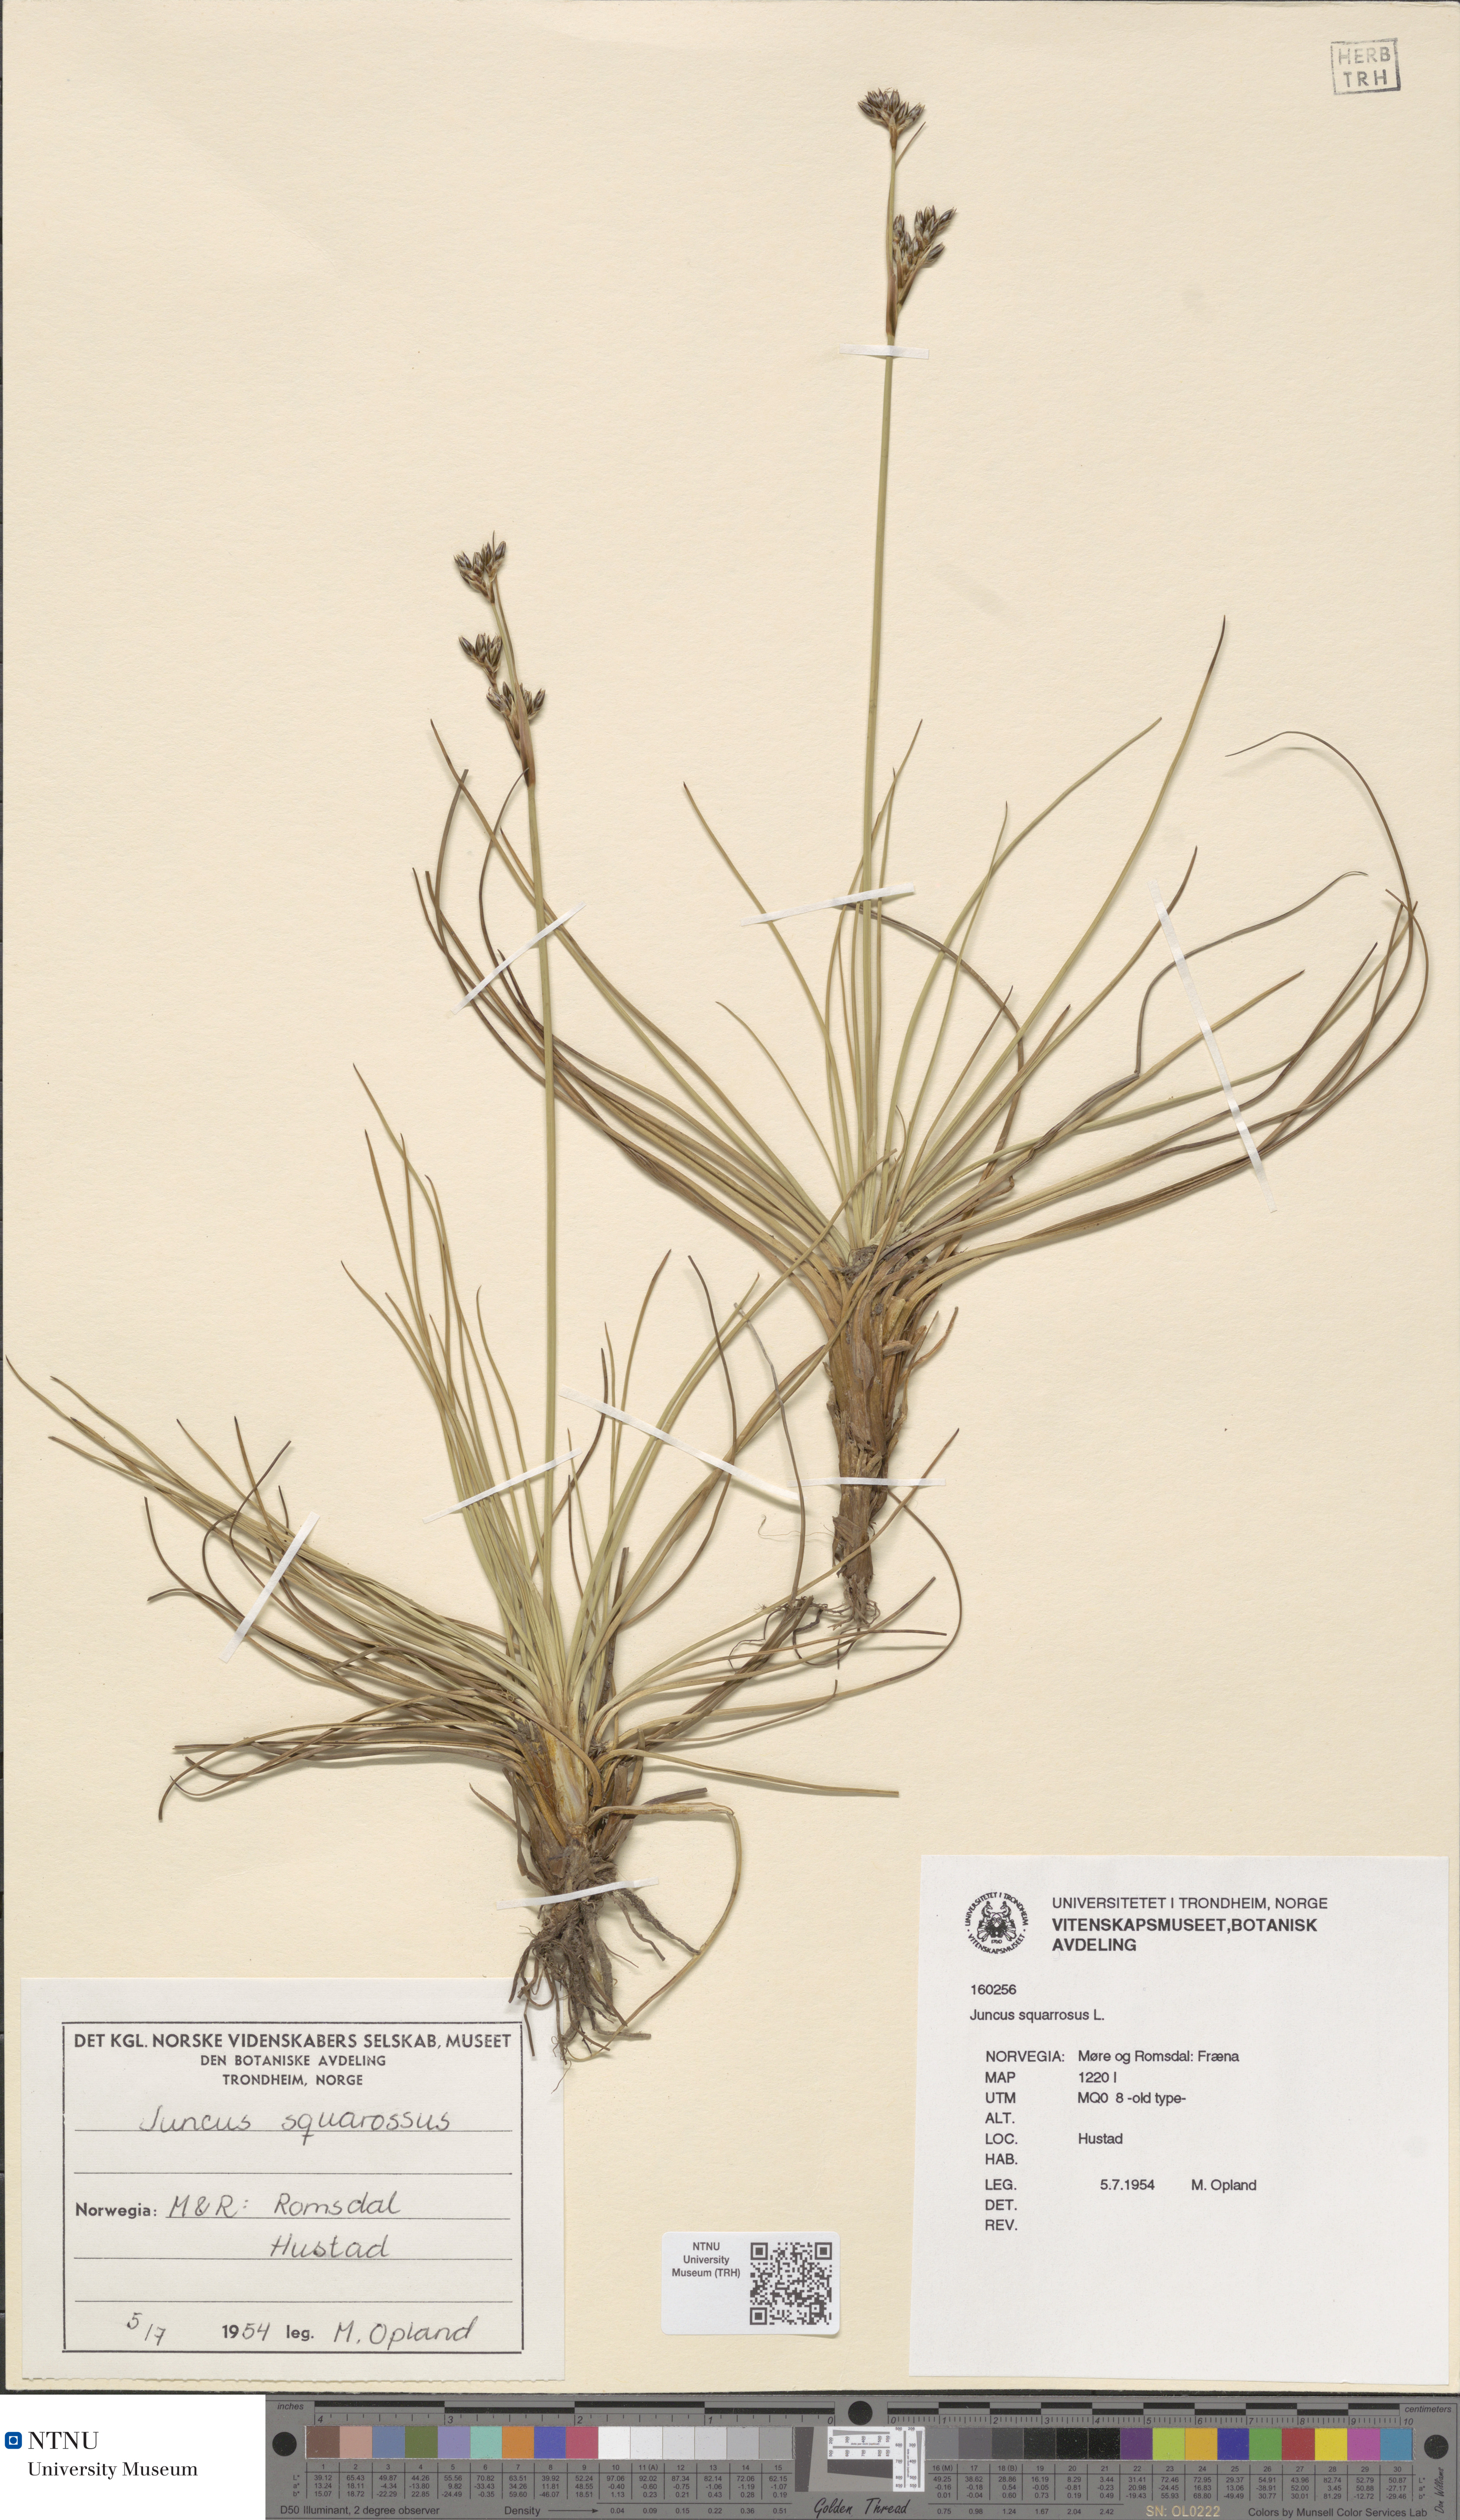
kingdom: Plantae
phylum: Tracheophyta
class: Liliopsida
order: Poales
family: Juncaceae
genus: Juncus
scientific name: Juncus squarrosus
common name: Heath rush
